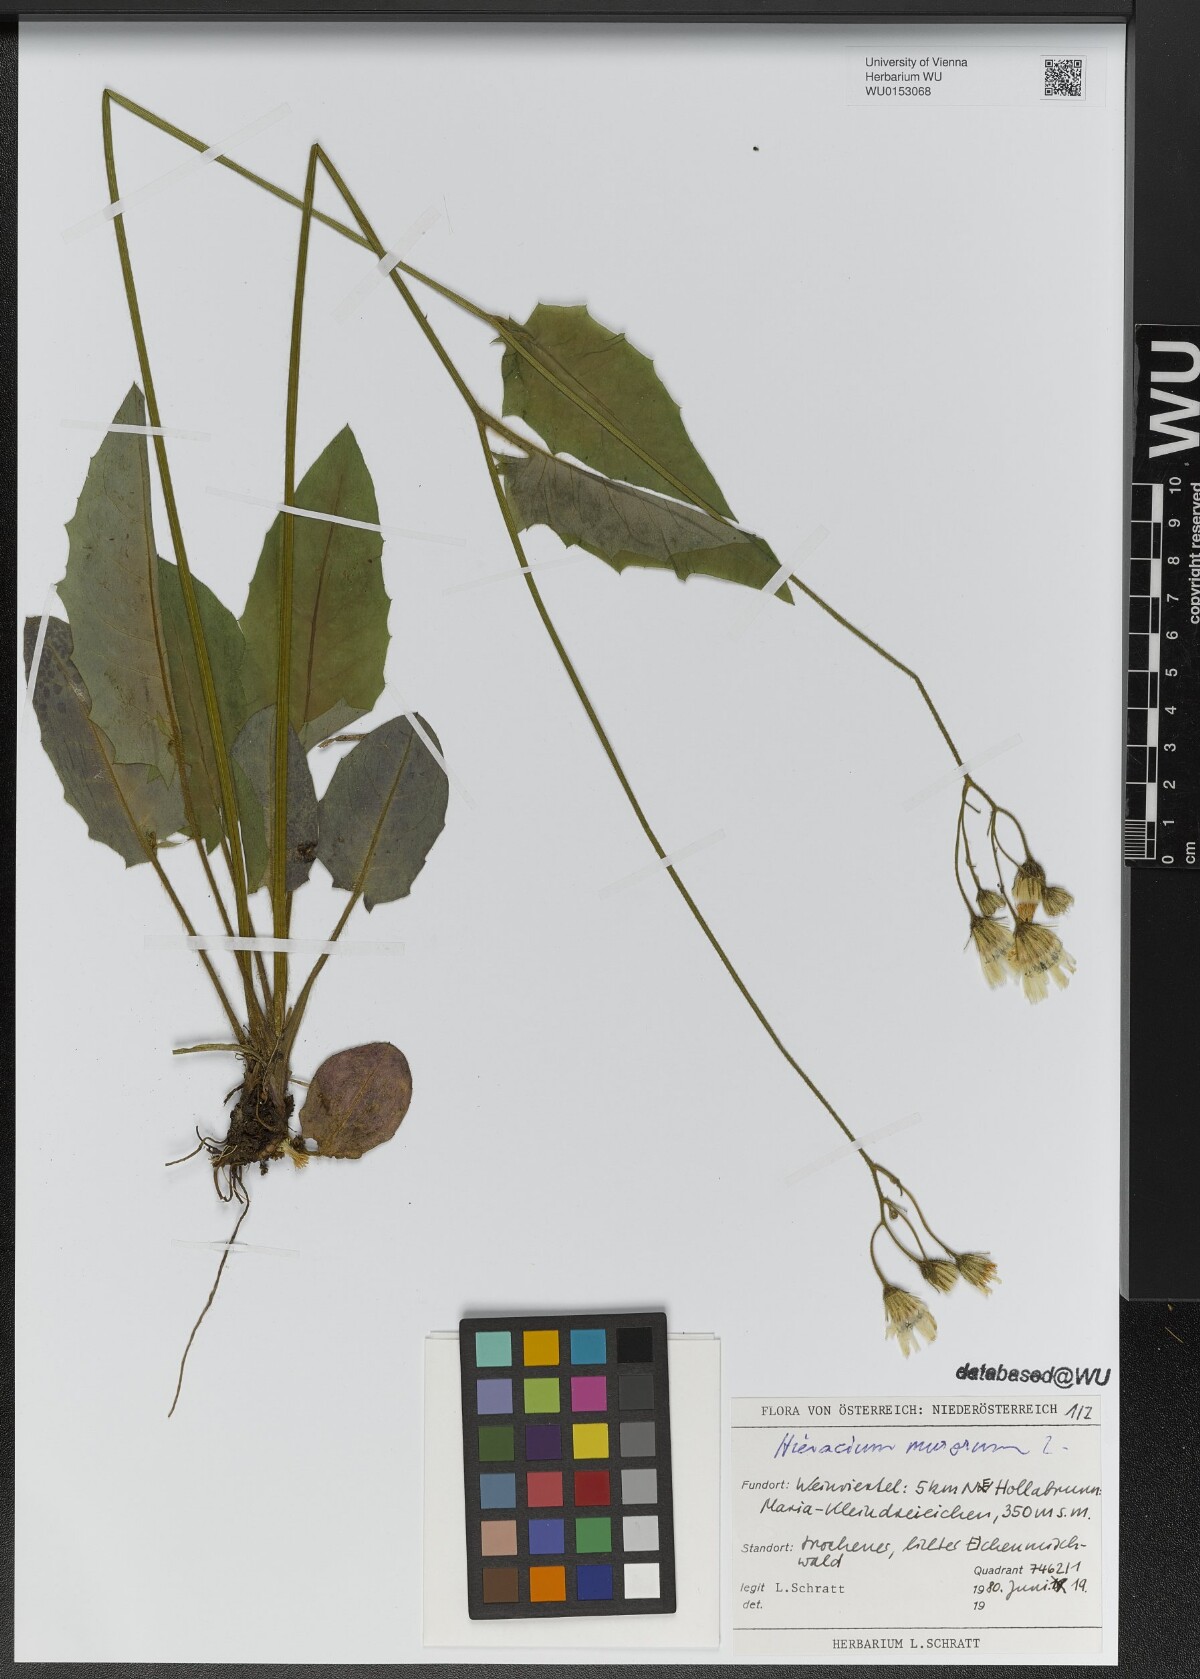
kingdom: Plantae
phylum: Tracheophyta
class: Magnoliopsida
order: Asterales
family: Asteraceae
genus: Hieracium
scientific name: Hieracium murorum
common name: Wall hawkweed
